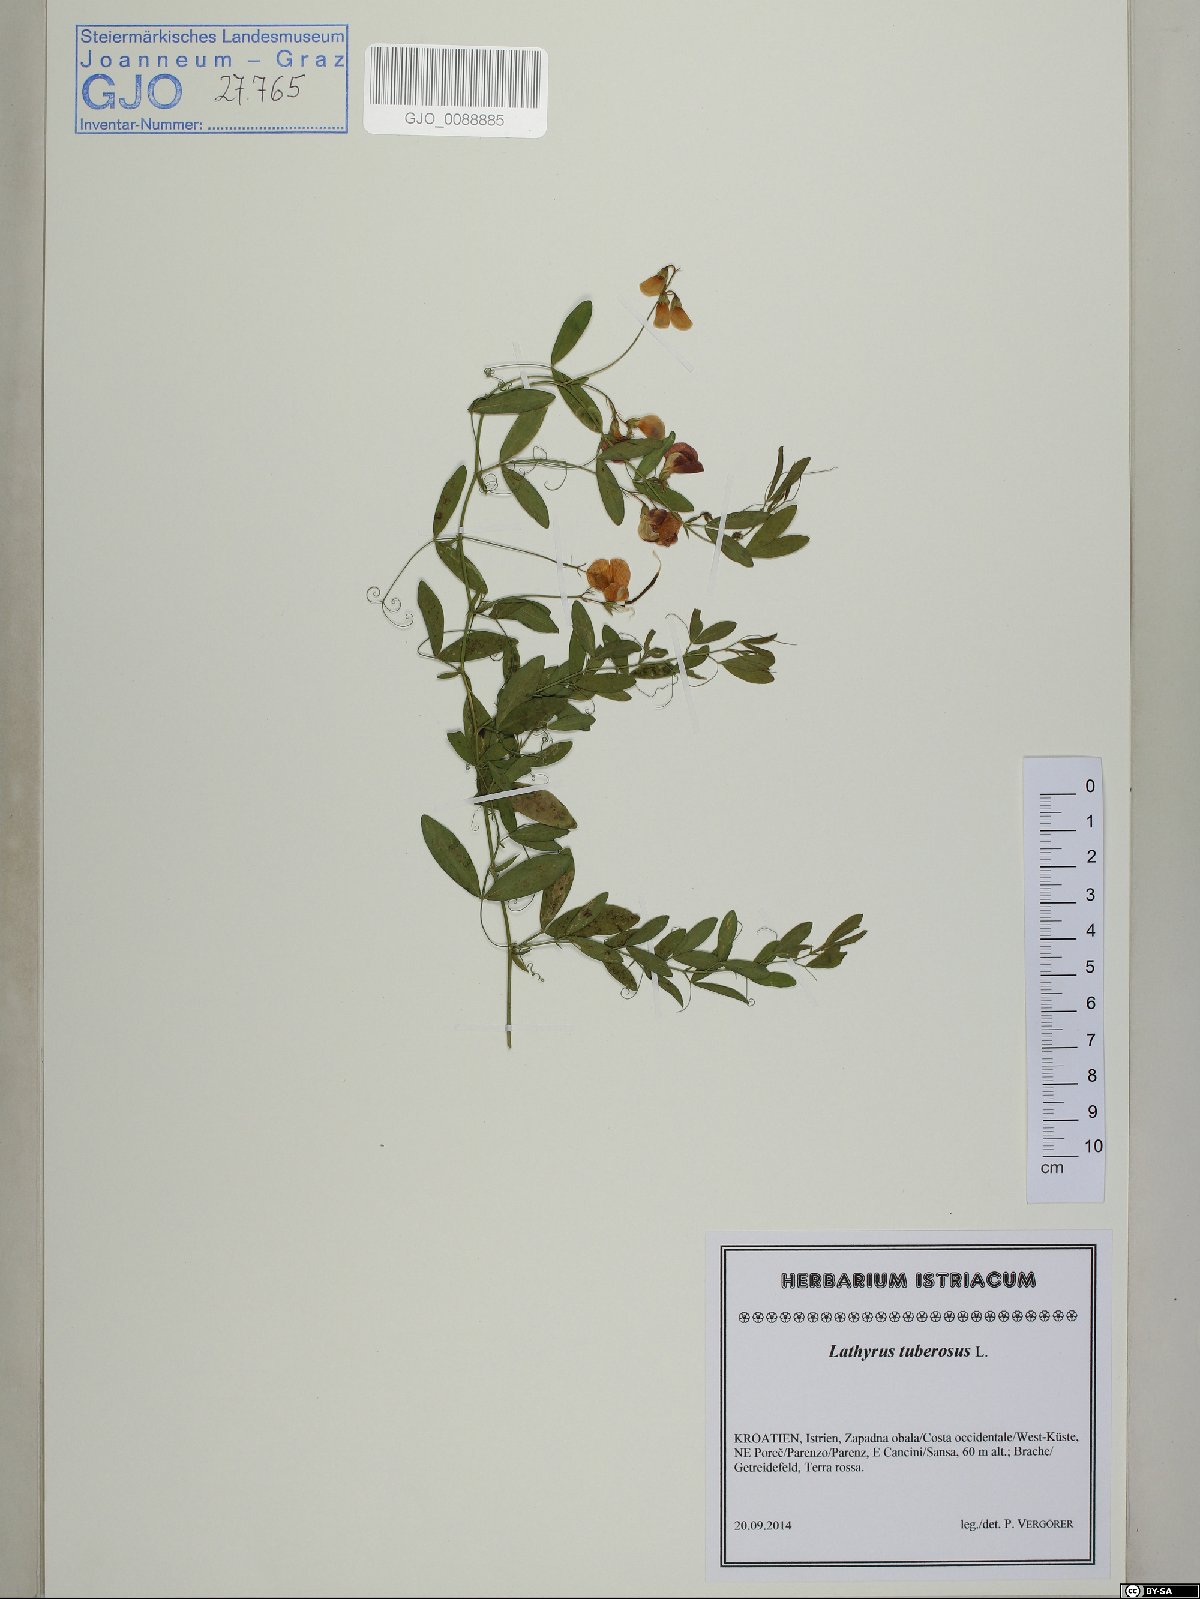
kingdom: Plantae
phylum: Tracheophyta
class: Magnoliopsida
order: Fabales
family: Fabaceae
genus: Lathyrus
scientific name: Lathyrus tuberosus
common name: Tuberous pea
